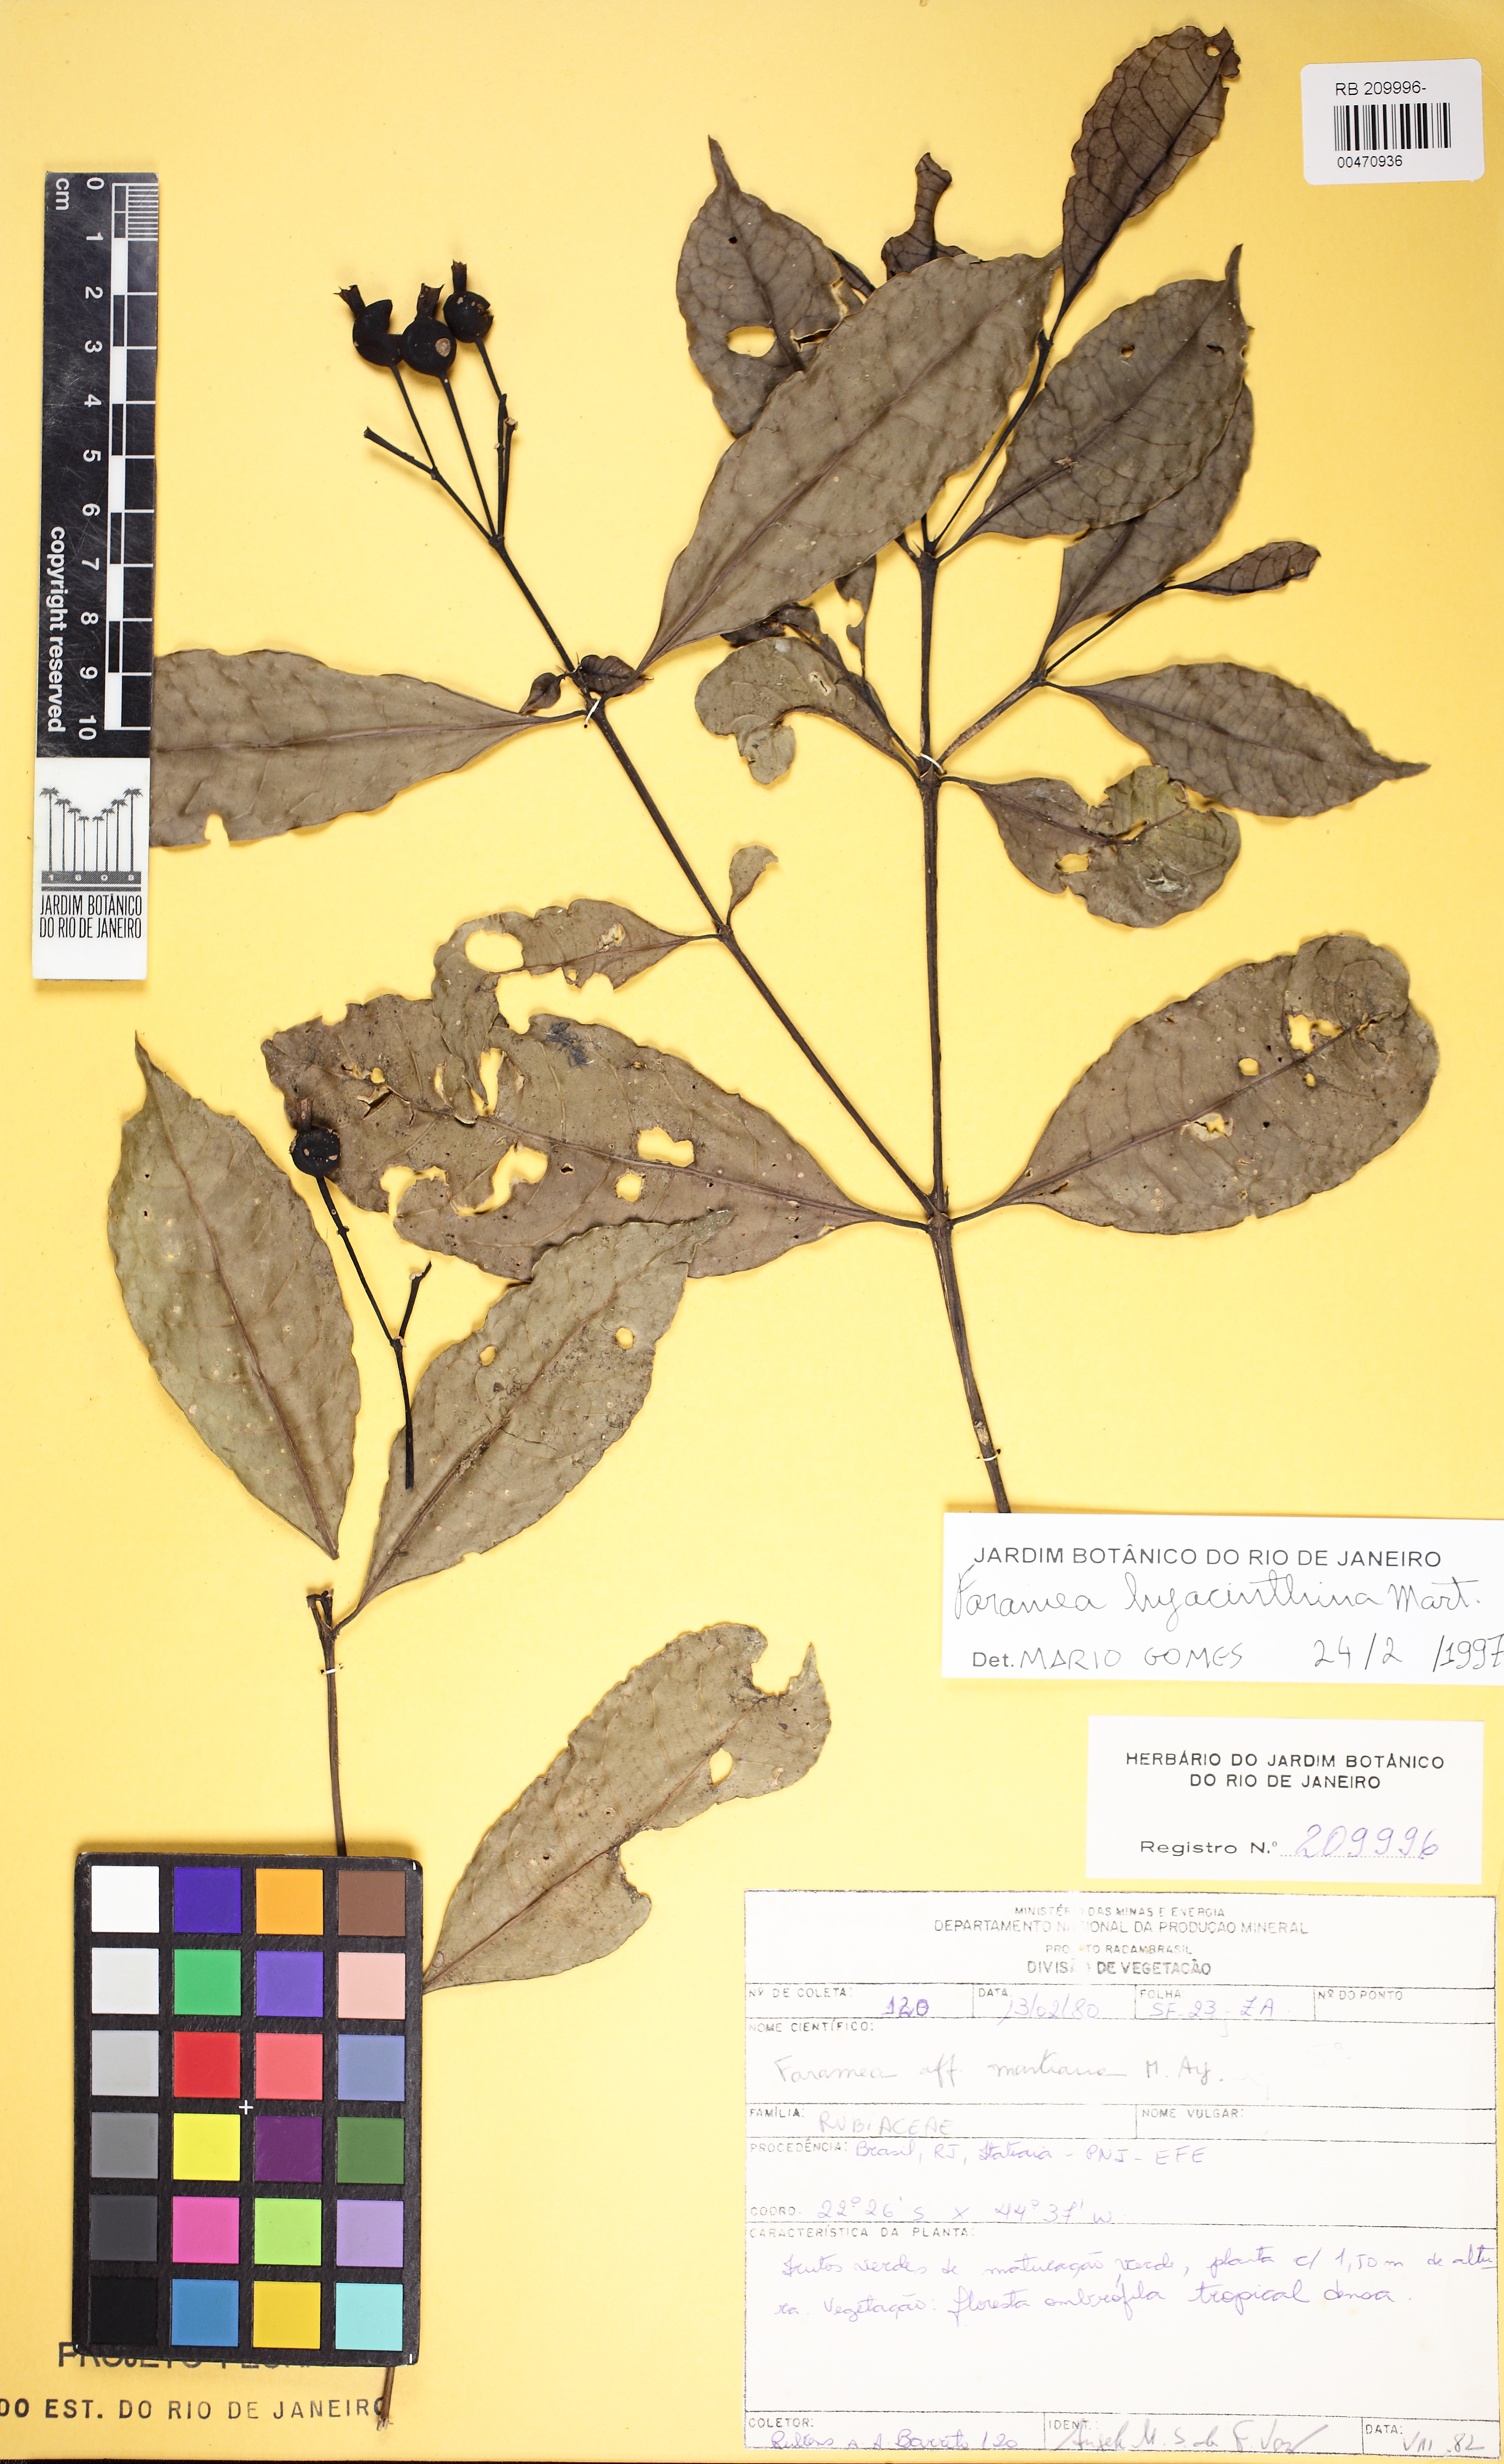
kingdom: Plantae
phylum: Tracheophyta
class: Magnoliopsida
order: Gentianales
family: Rubiaceae
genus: Faramea
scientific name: Faramea hyacinthina
